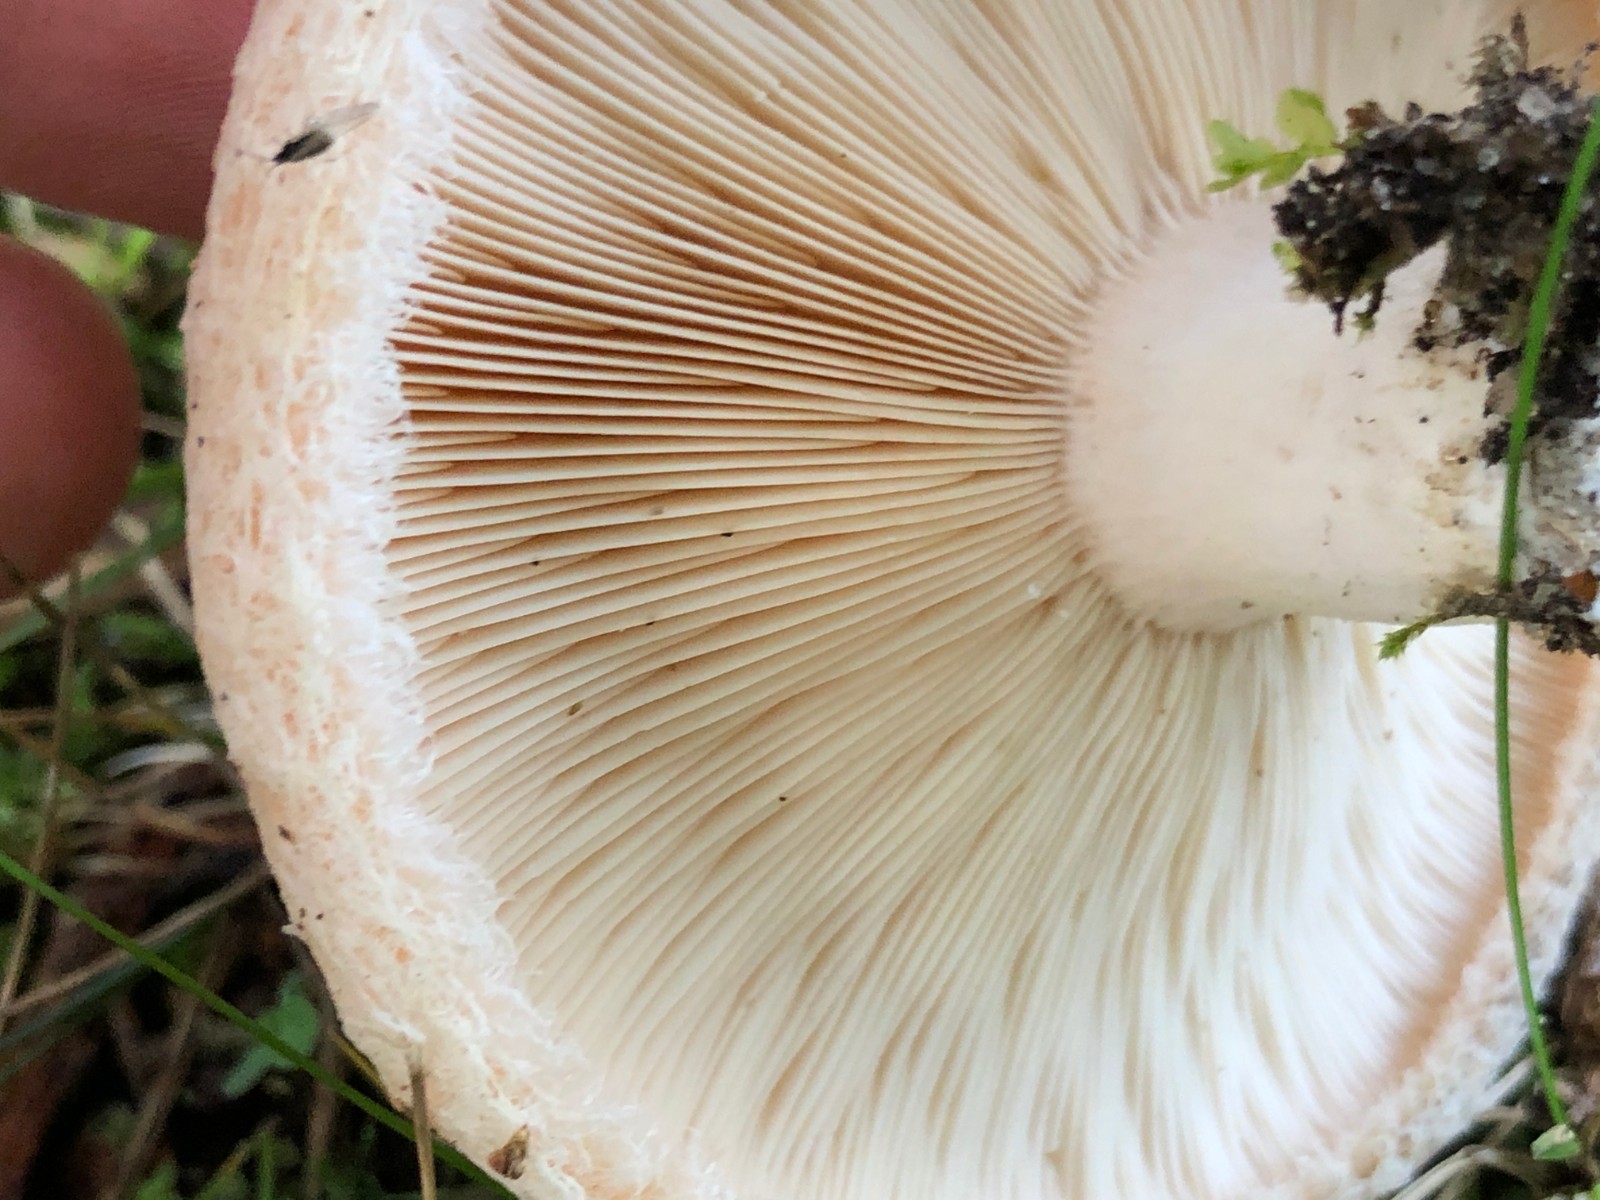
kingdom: Fungi
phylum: Basidiomycota
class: Agaricomycetes
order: Russulales
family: Russulaceae
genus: Lactarius
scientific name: Lactarius pubescens
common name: dunet mælkehat
